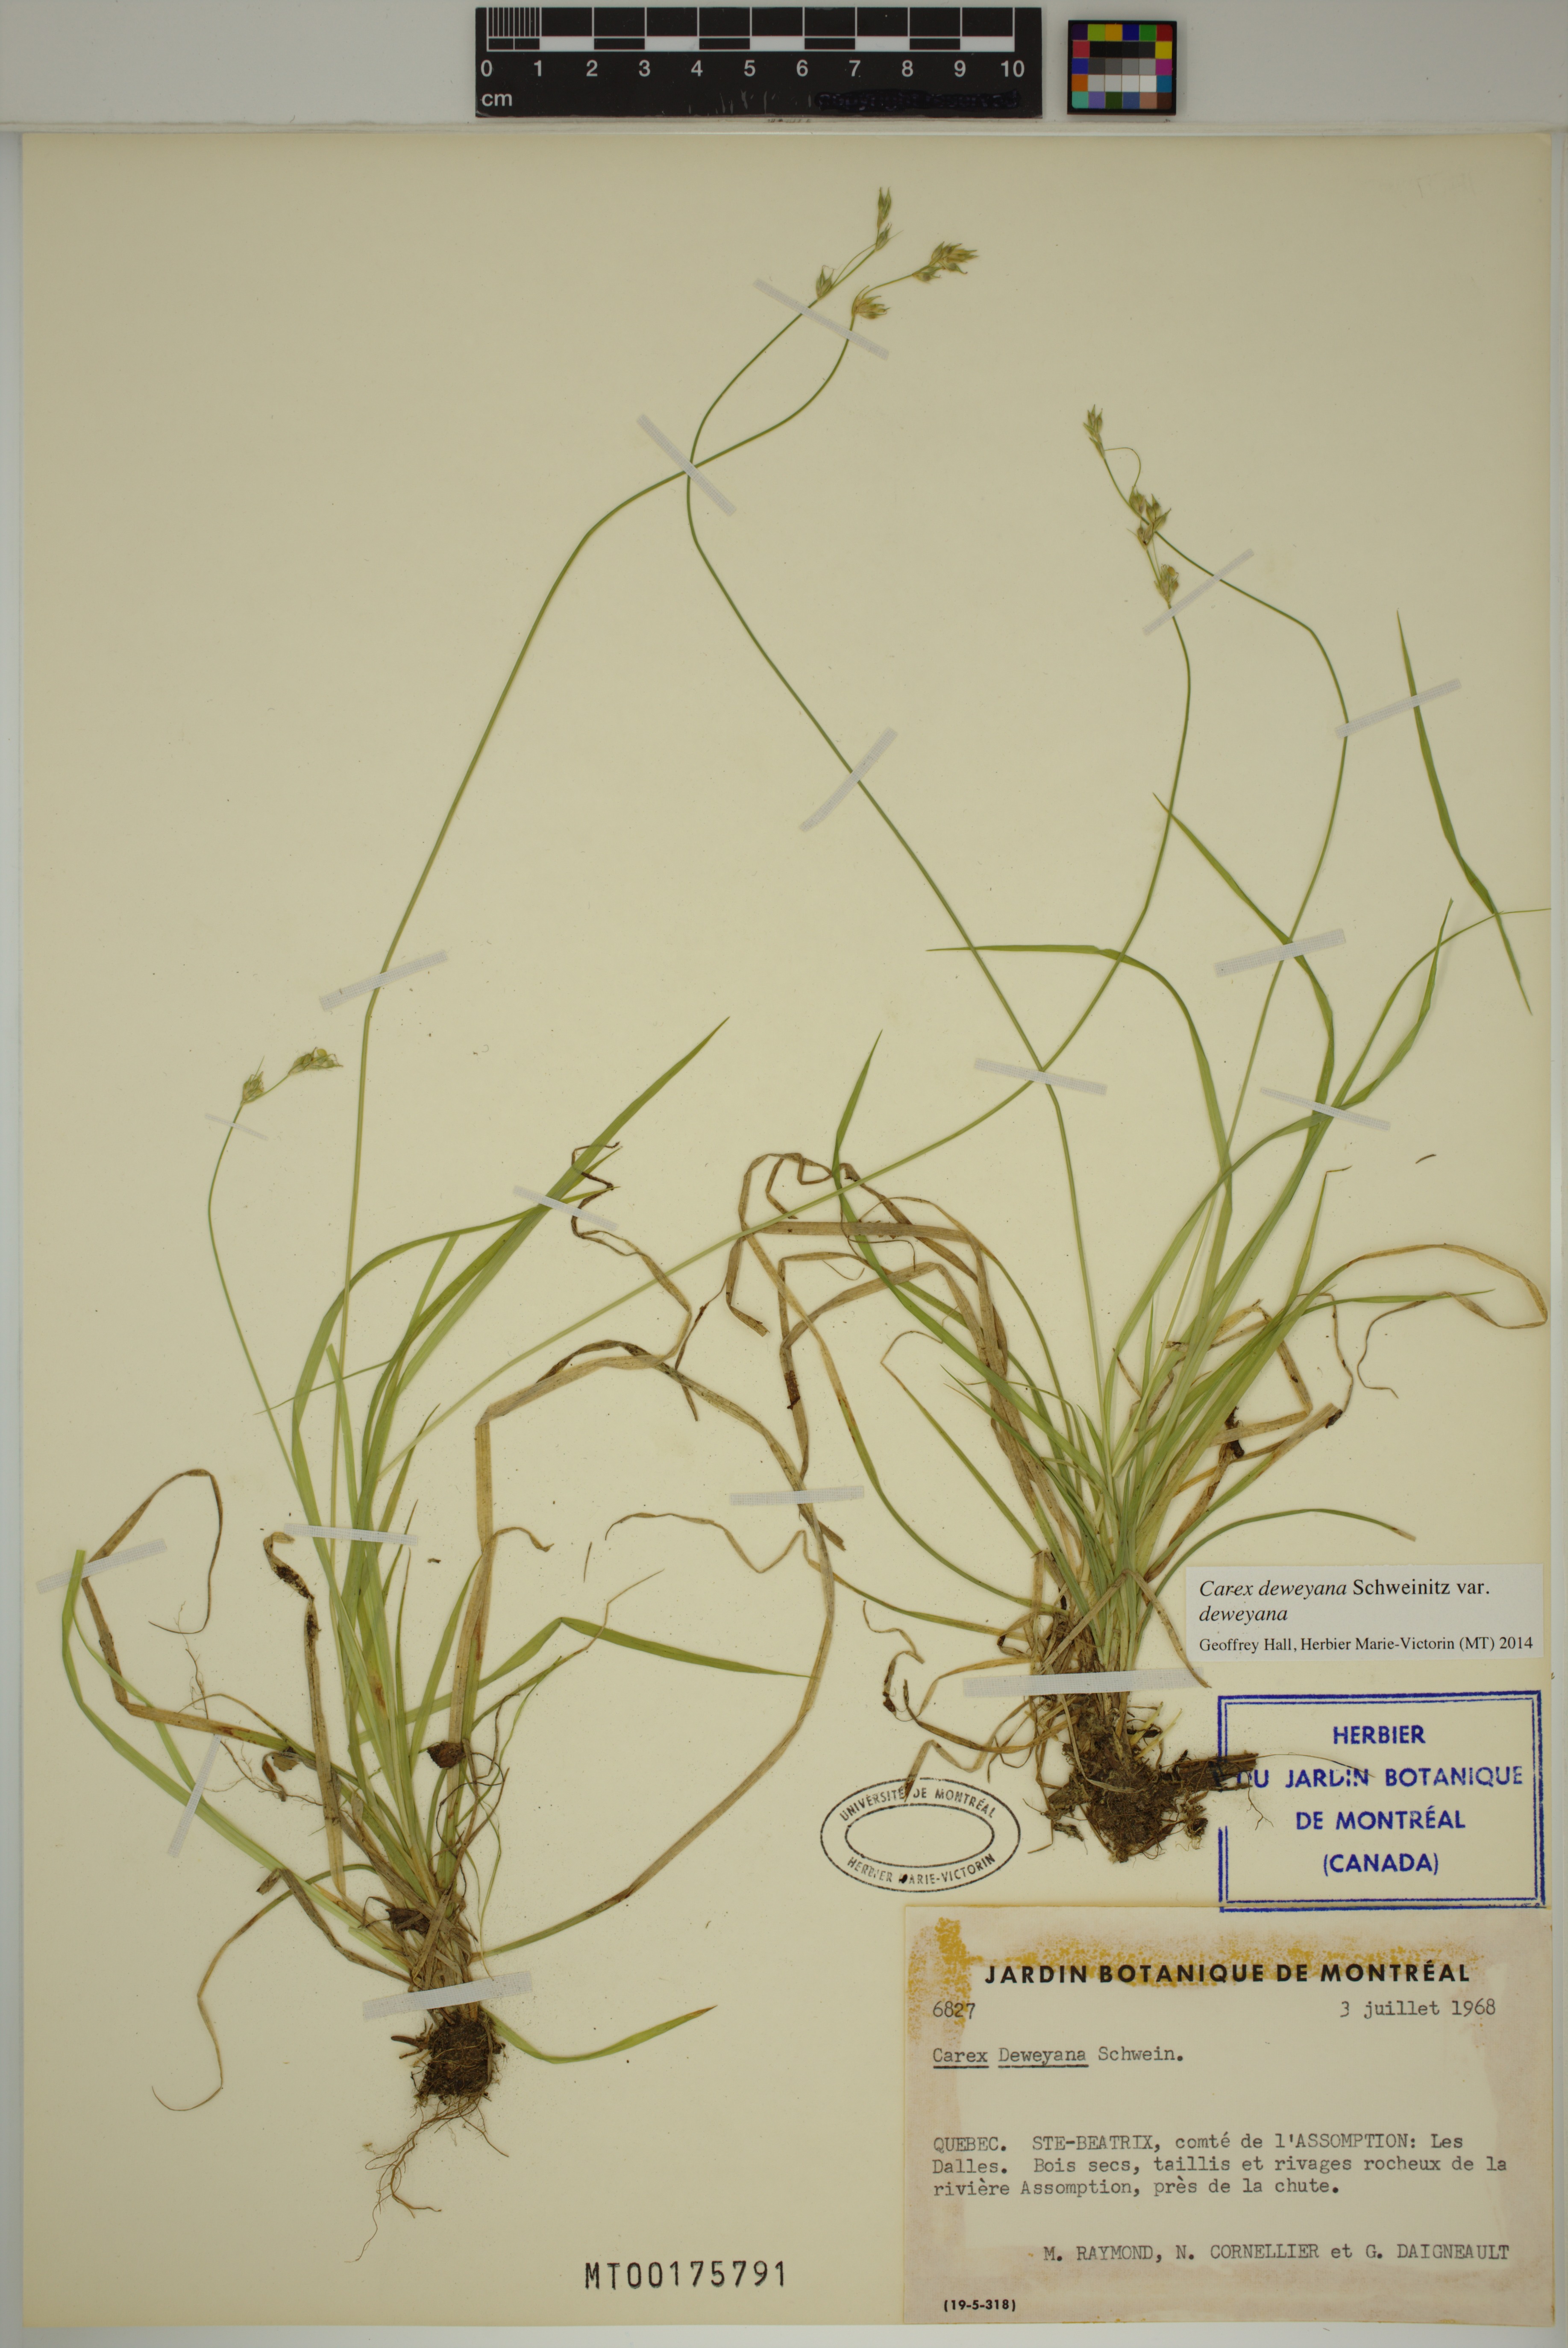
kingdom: Plantae
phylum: Tracheophyta
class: Liliopsida
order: Poales
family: Cyperaceae
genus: Carex
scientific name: Carex deweyana
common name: Dewey's sedge
